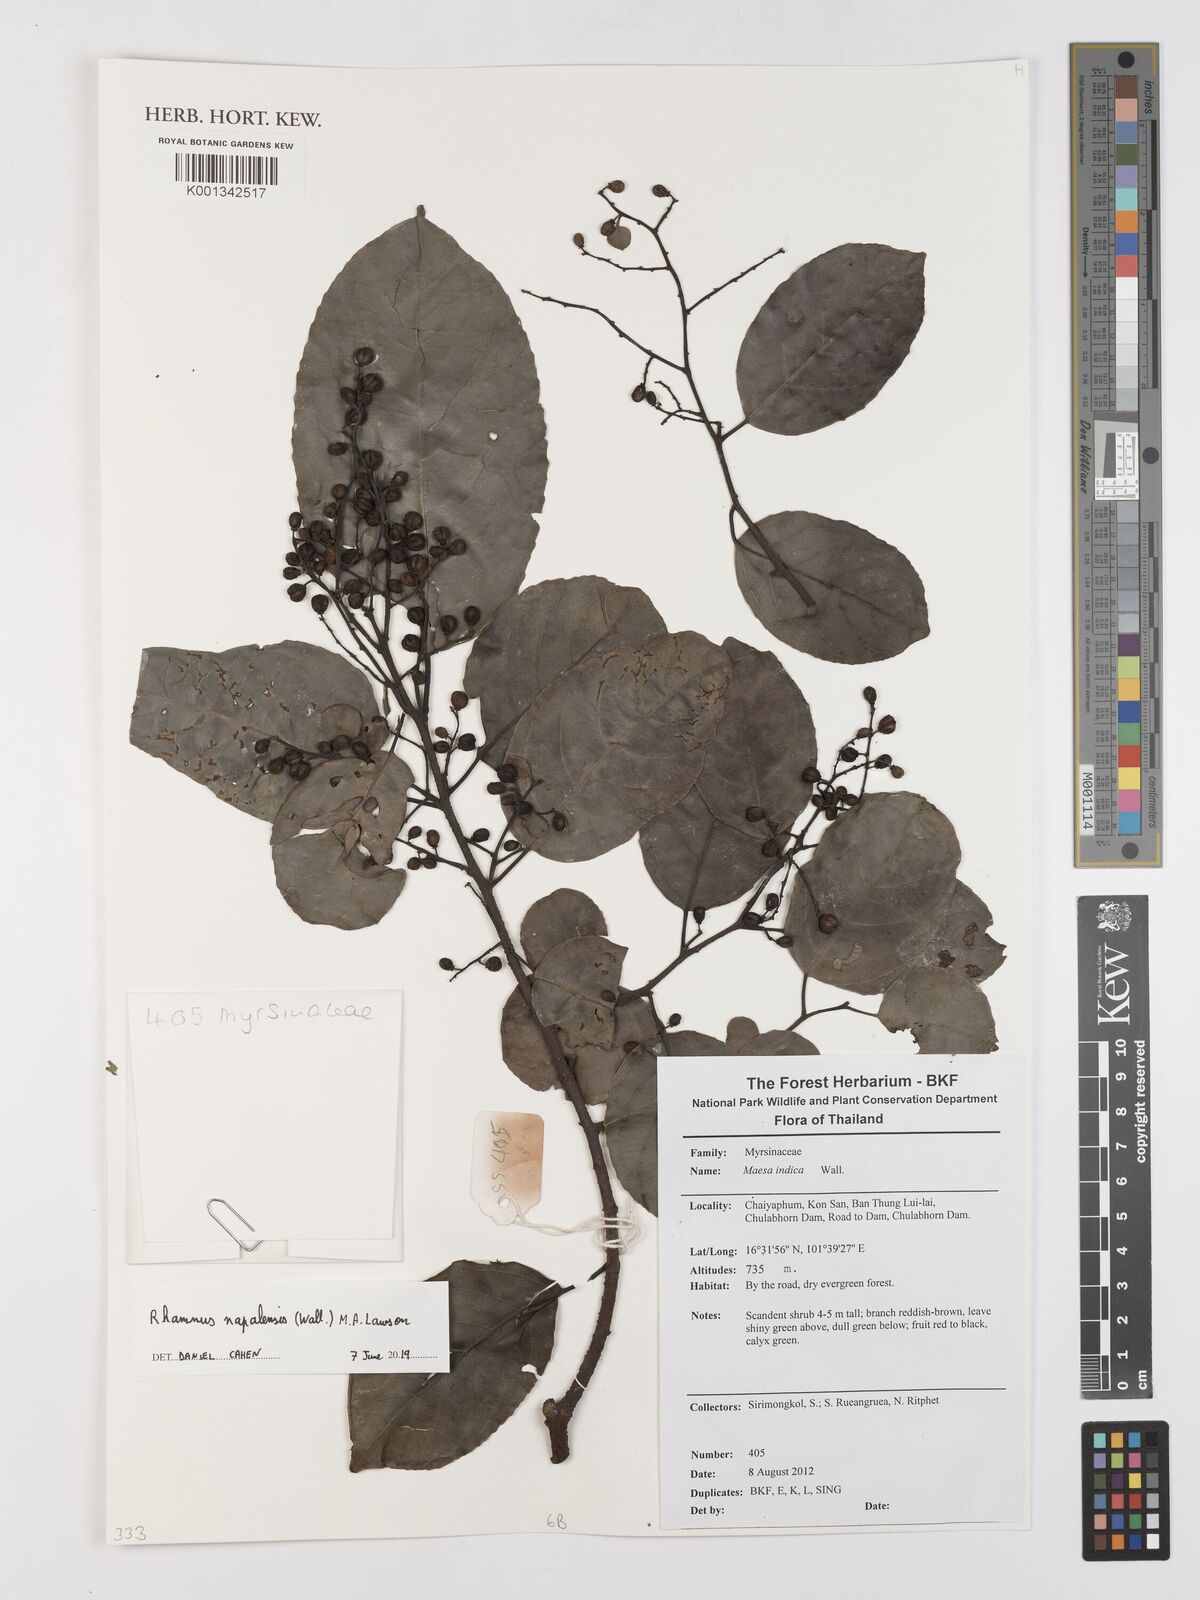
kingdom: Plantae
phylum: Tracheophyta
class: Magnoliopsida
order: Rosales
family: Rhamnaceae
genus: Rhamnus
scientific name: Rhamnus napalensis
